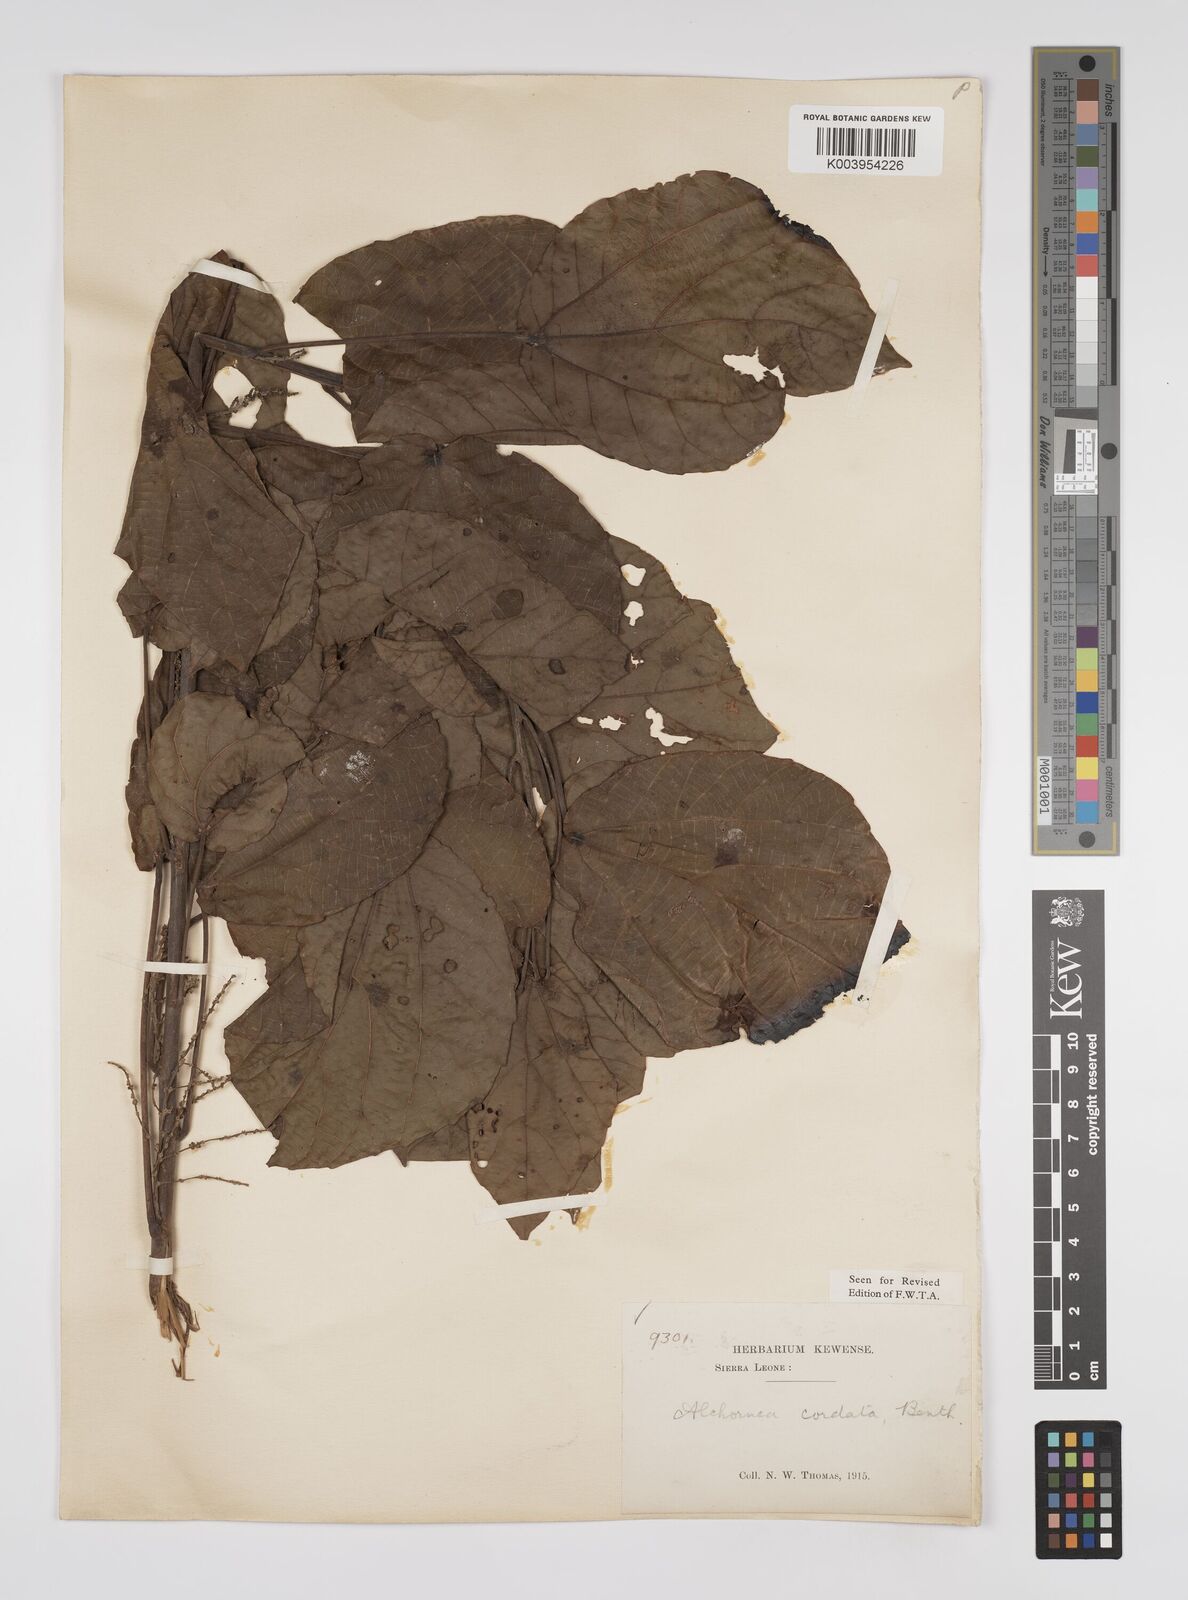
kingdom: Plantae
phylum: Tracheophyta
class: Magnoliopsida
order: Malpighiales
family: Euphorbiaceae
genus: Alchornea
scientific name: Alchornea cordifolia
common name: Christmasbush
